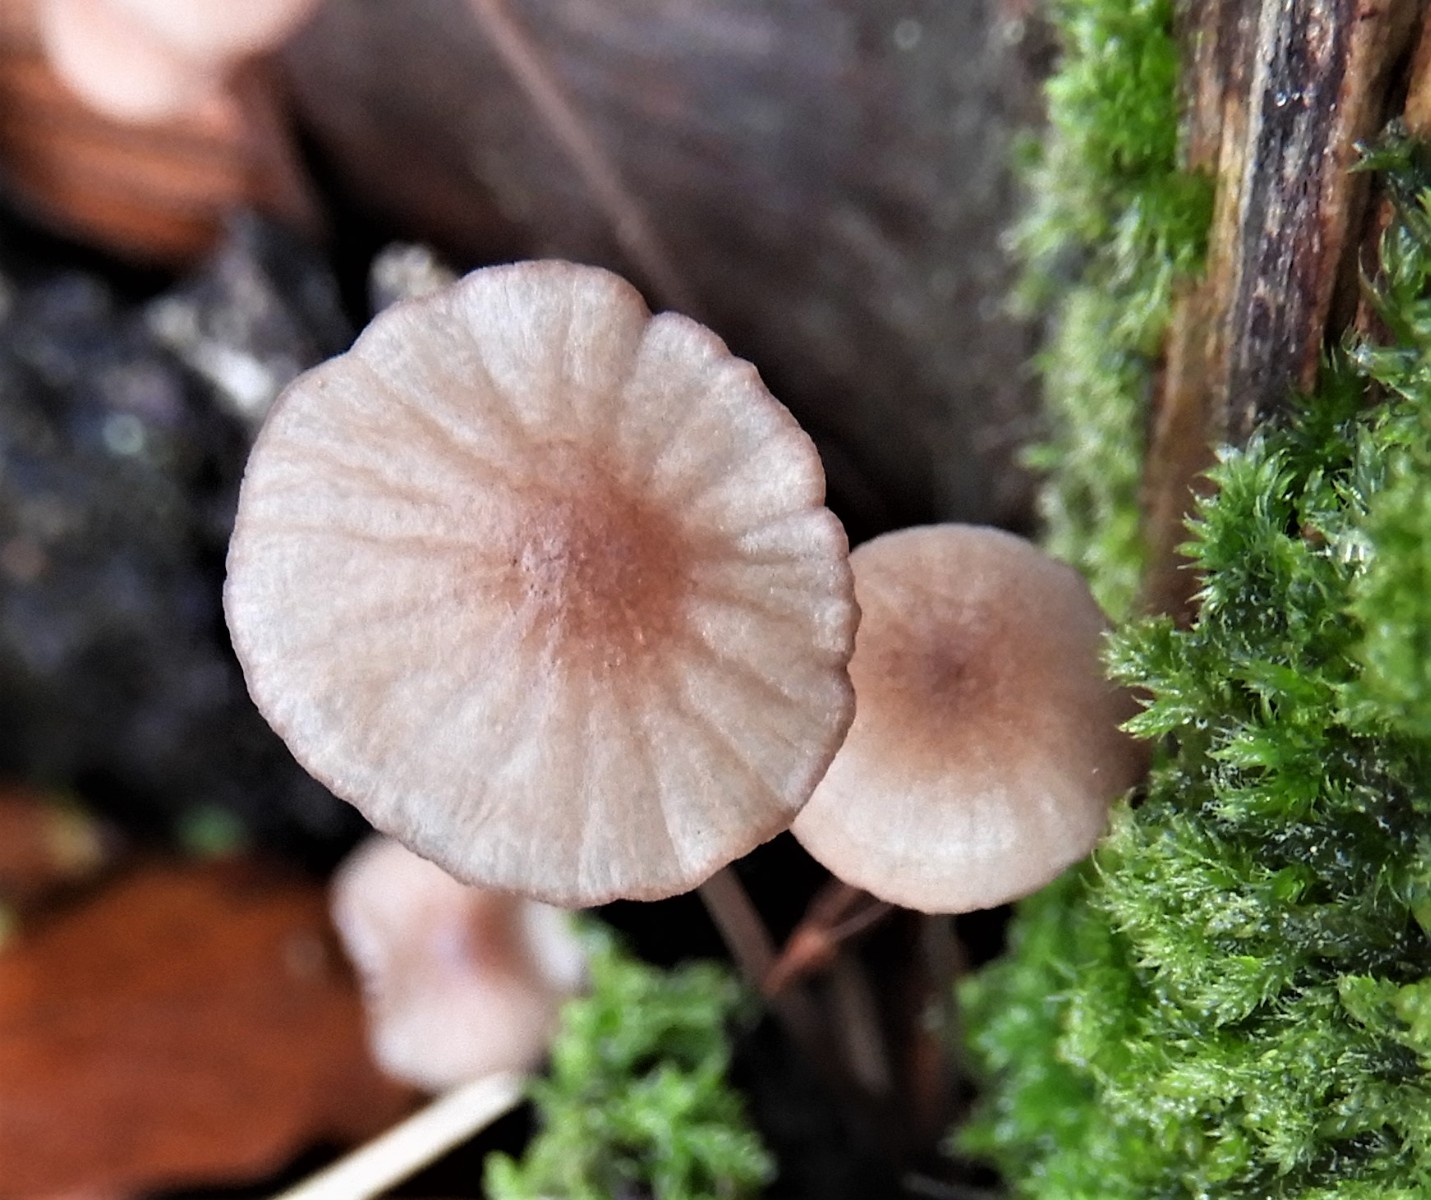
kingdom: Fungi
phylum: Basidiomycota
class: Agaricomycetes
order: Agaricales
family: Mycenaceae
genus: Mycena
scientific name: Mycena sanguinolenta
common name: rødmælket huesvamp
